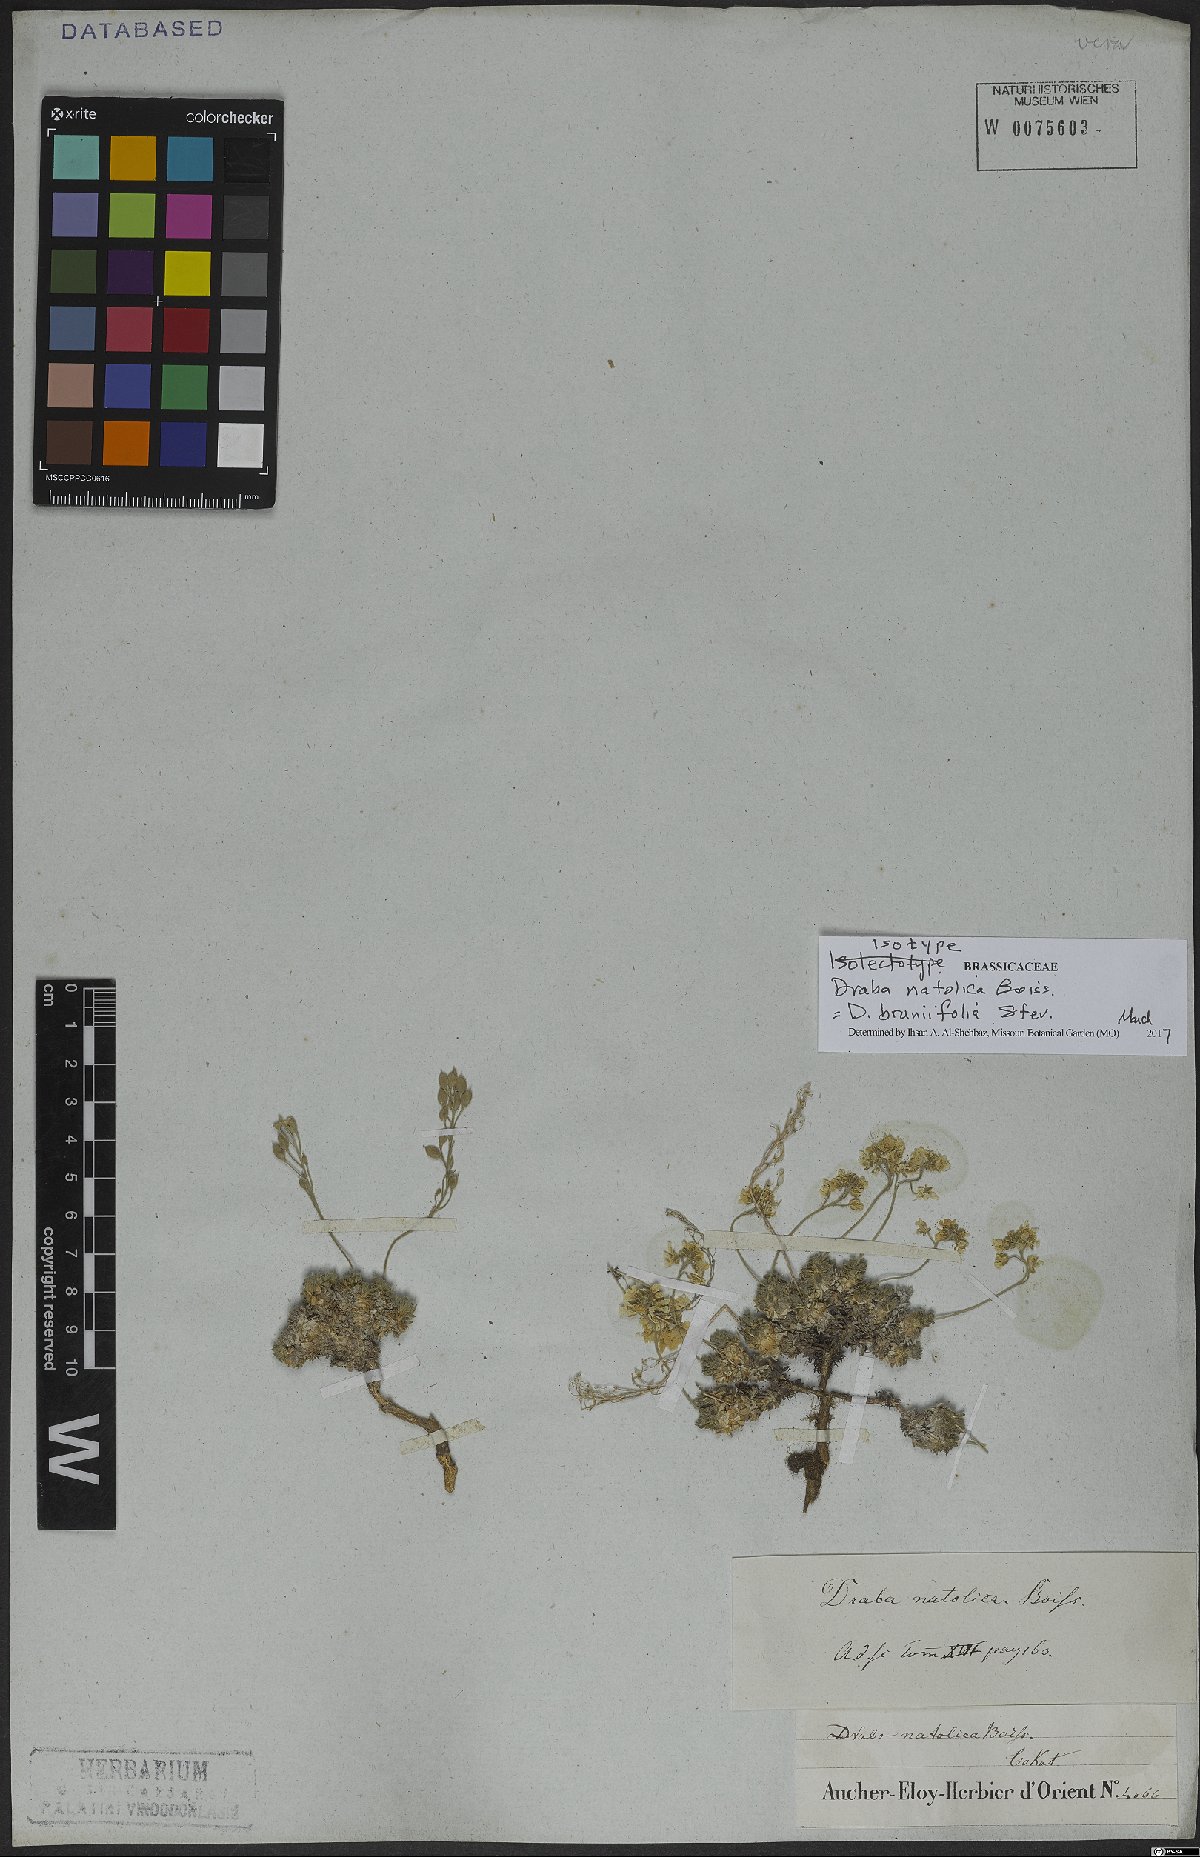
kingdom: Plantae
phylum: Tracheophyta
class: Magnoliopsida
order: Brassicales
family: Brassicaceae
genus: Draba
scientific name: Draba bruniifolia
